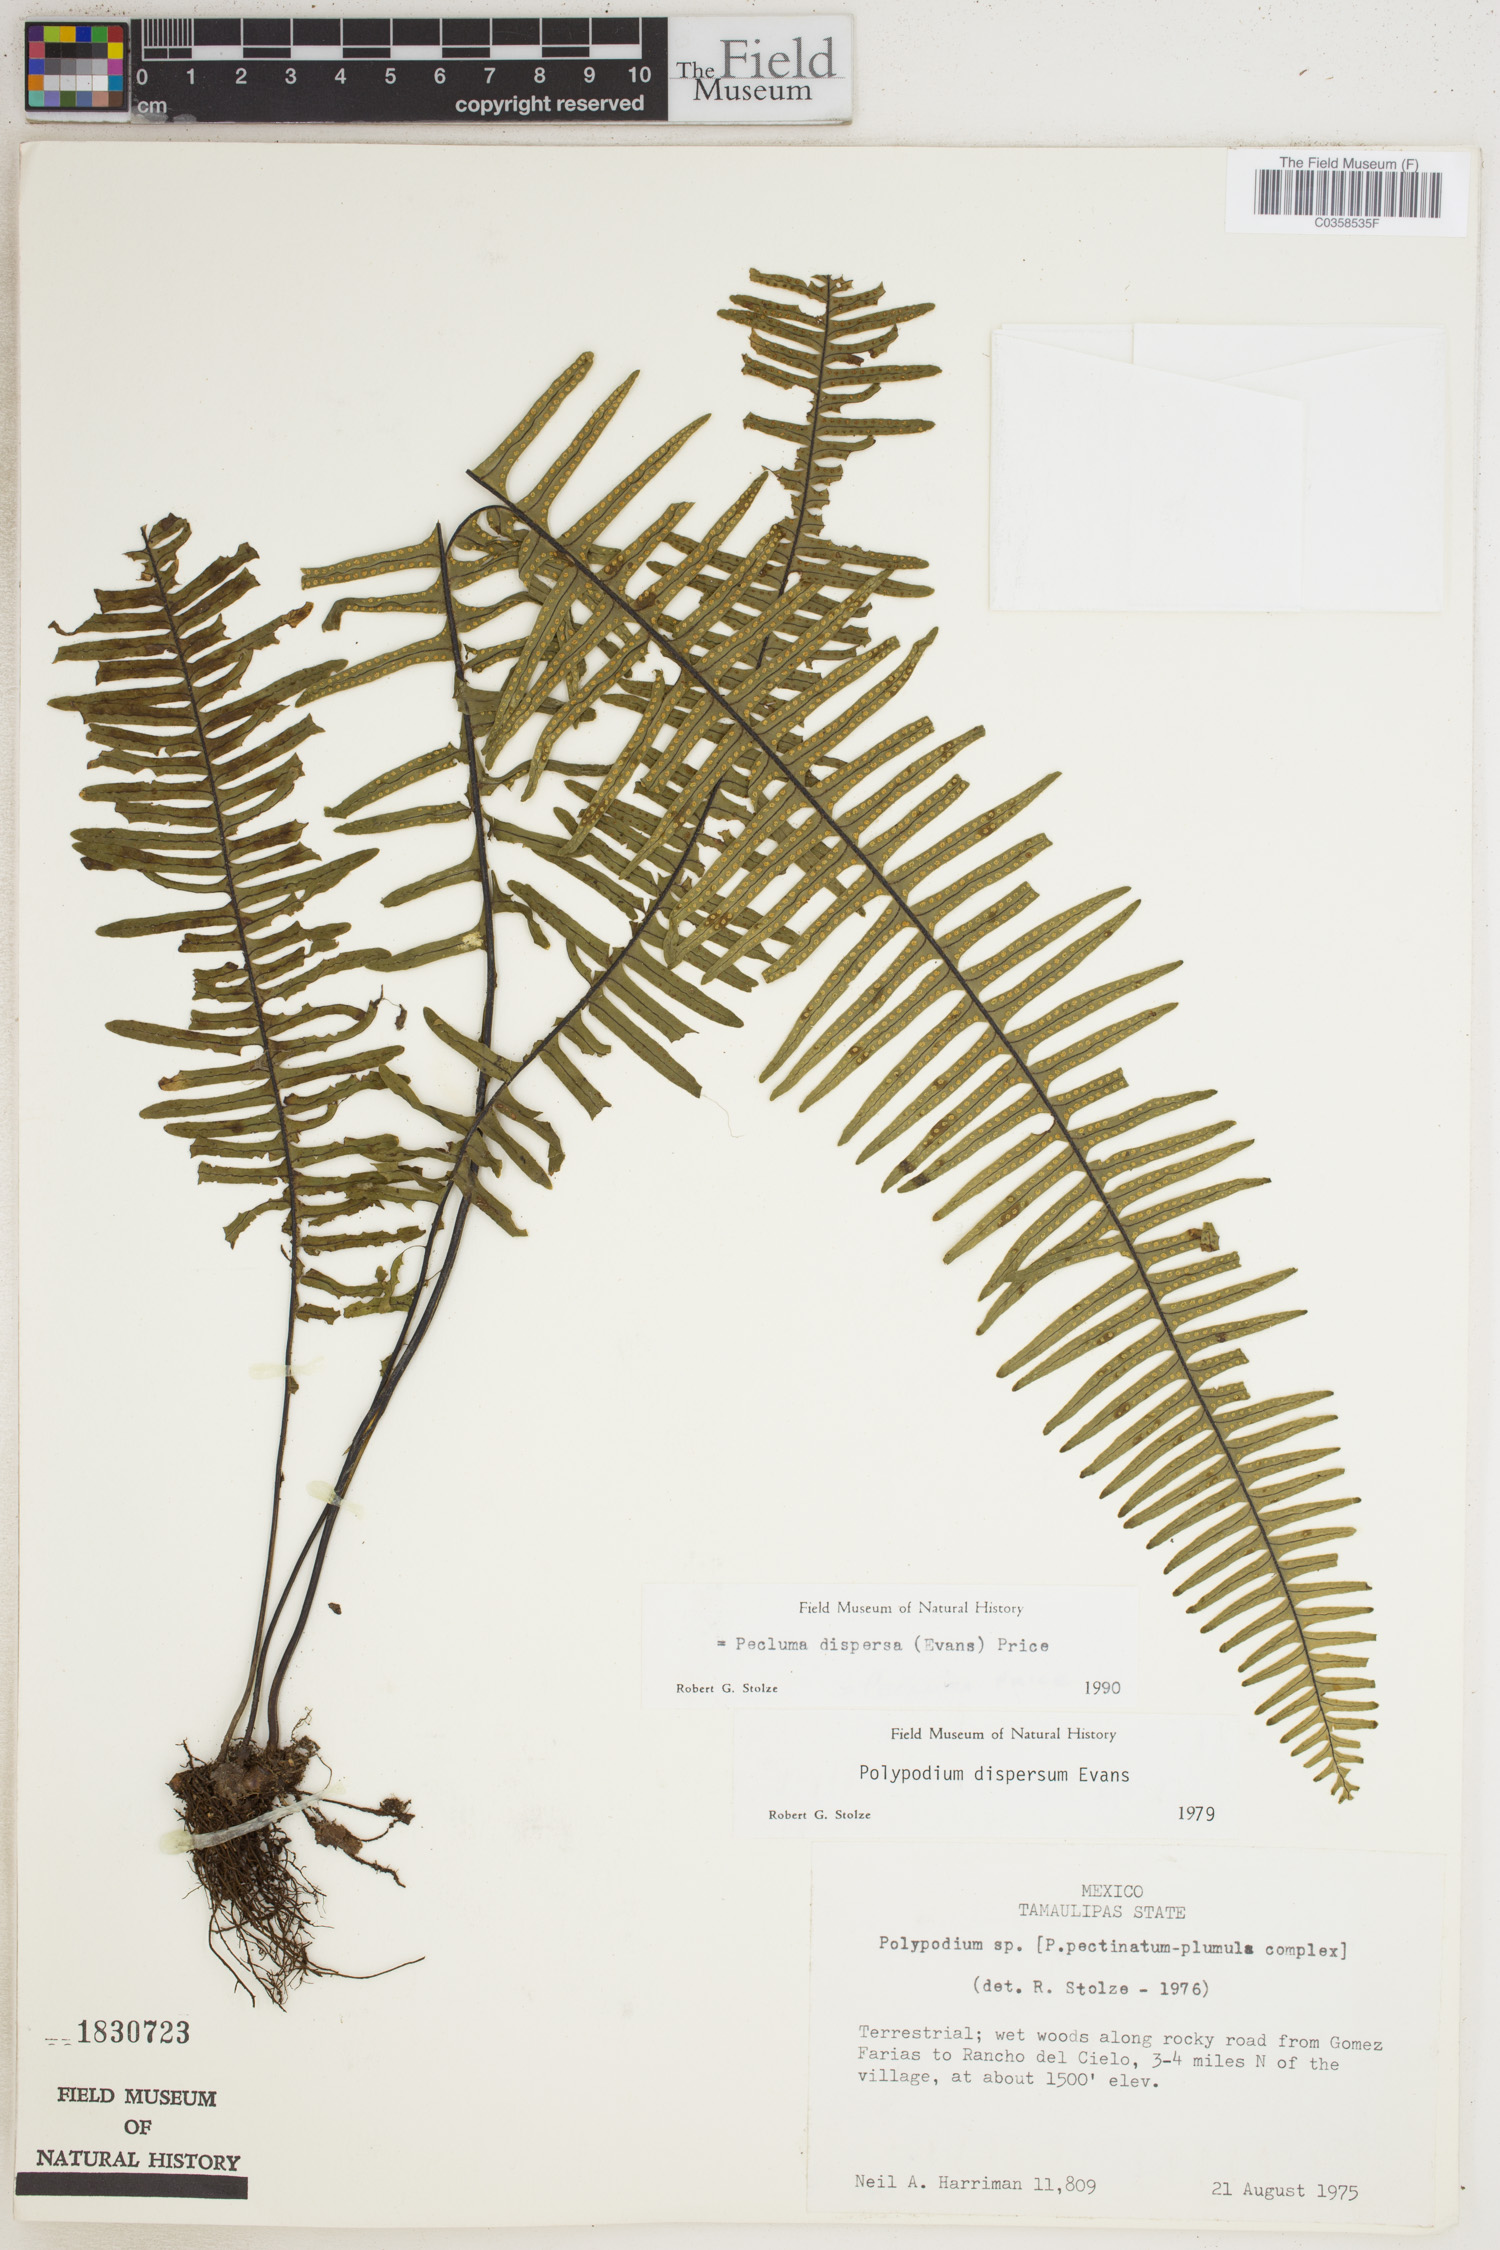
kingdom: Plantae
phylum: Tracheophyta
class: Polypodiopsida
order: Polypodiales
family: Polypodiaceae
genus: Pecluma
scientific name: Pecluma dispersa
